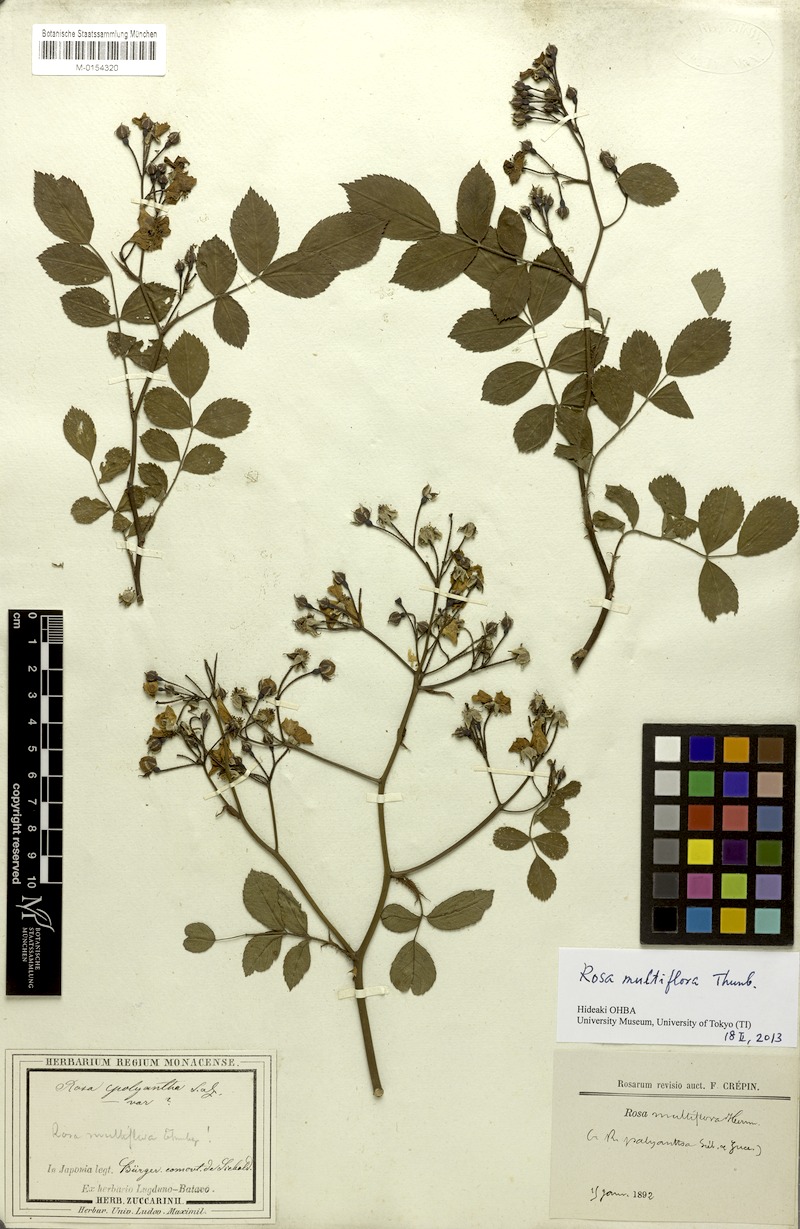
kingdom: Plantae
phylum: Tracheophyta
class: Magnoliopsida
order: Rosales
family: Rosaceae
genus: Rosa
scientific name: Rosa multiflora
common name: Multiflora rose
